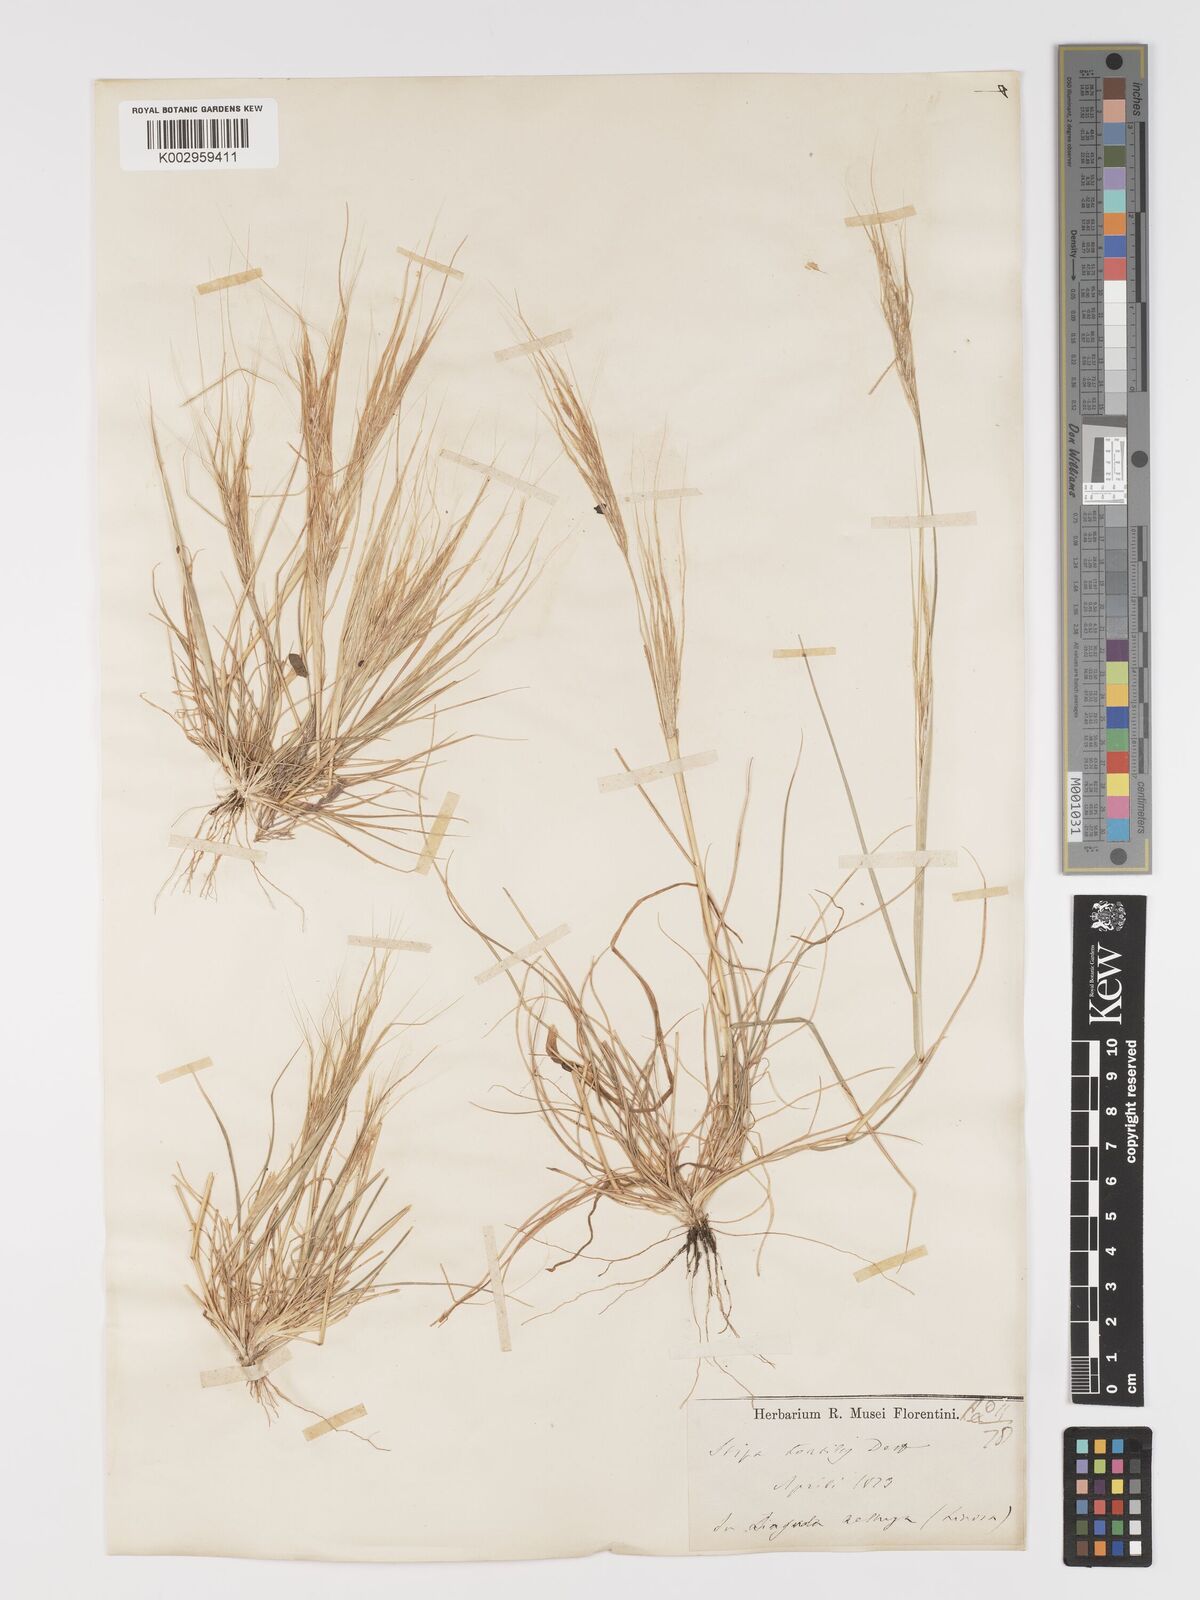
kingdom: Plantae
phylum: Tracheophyta
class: Liliopsida
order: Poales
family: Poaceae
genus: Stipa
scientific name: Stipa
